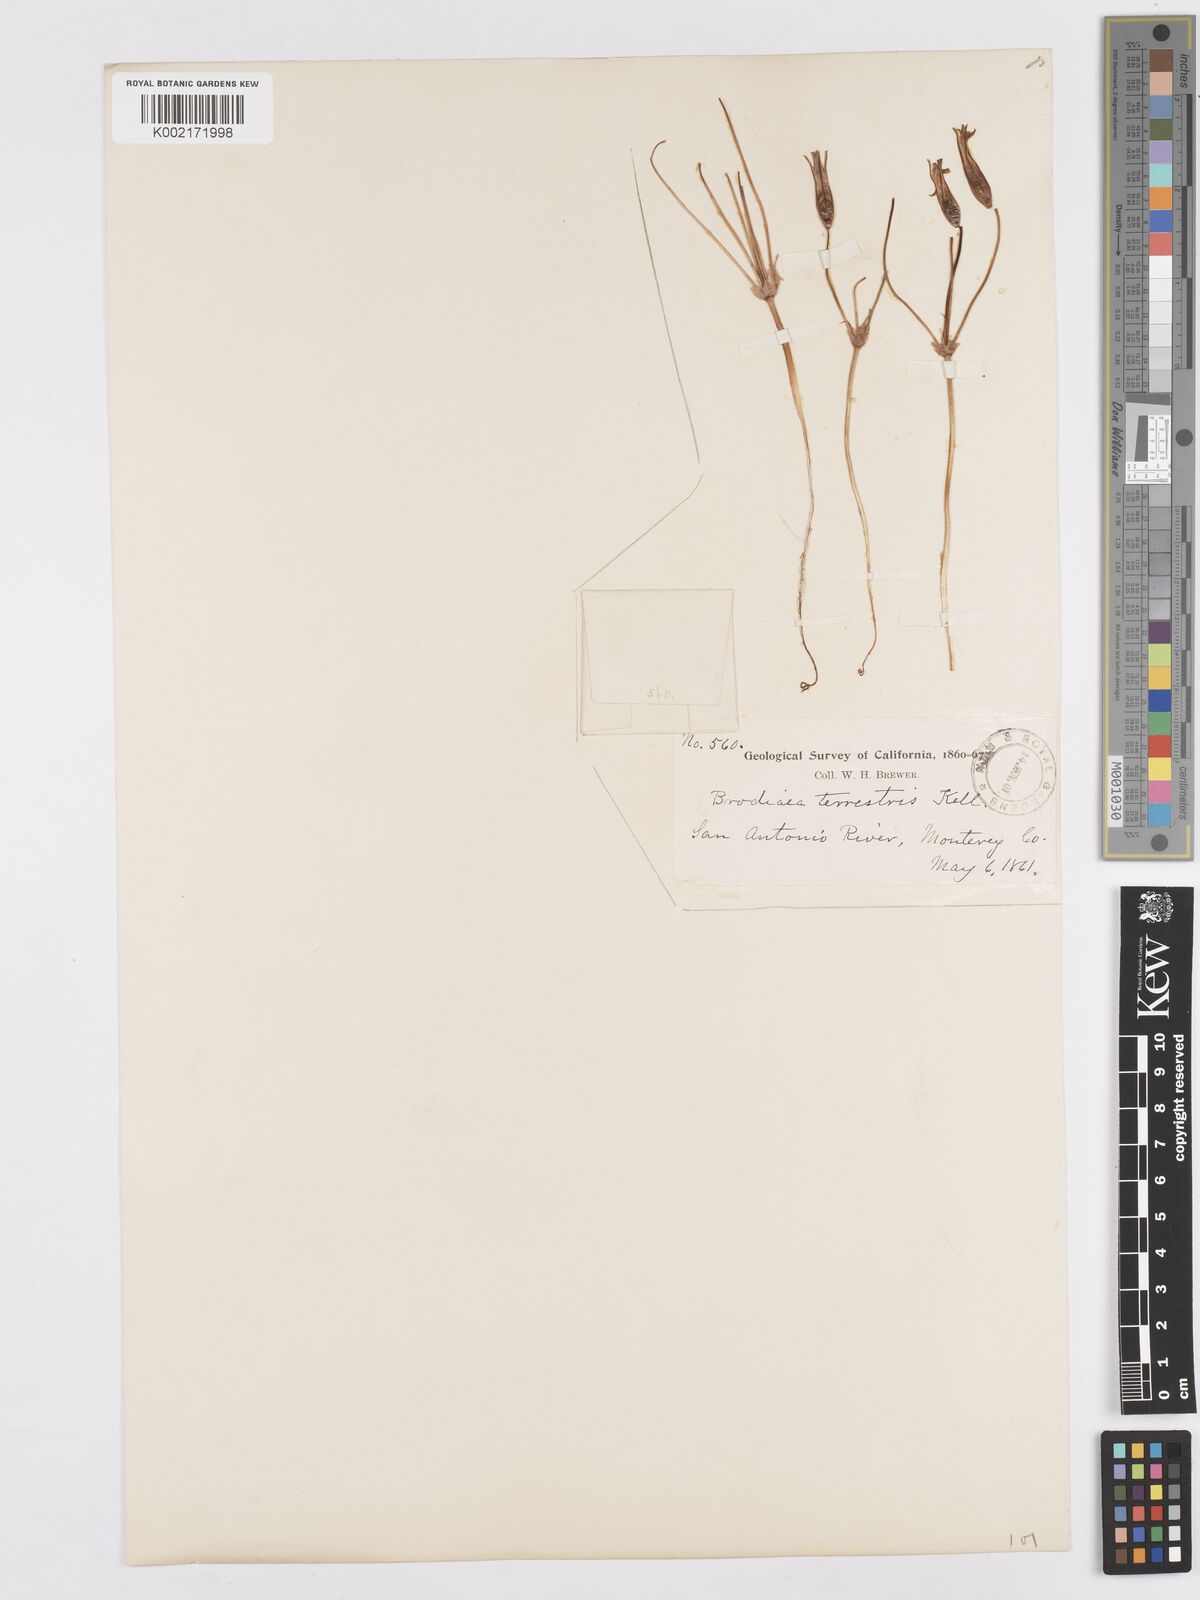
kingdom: Plantae
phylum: Tracheophyta
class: Liliopsida
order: Asparagales
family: Asparagaceae
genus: Brodiaea
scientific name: Brodiaea terrestris
